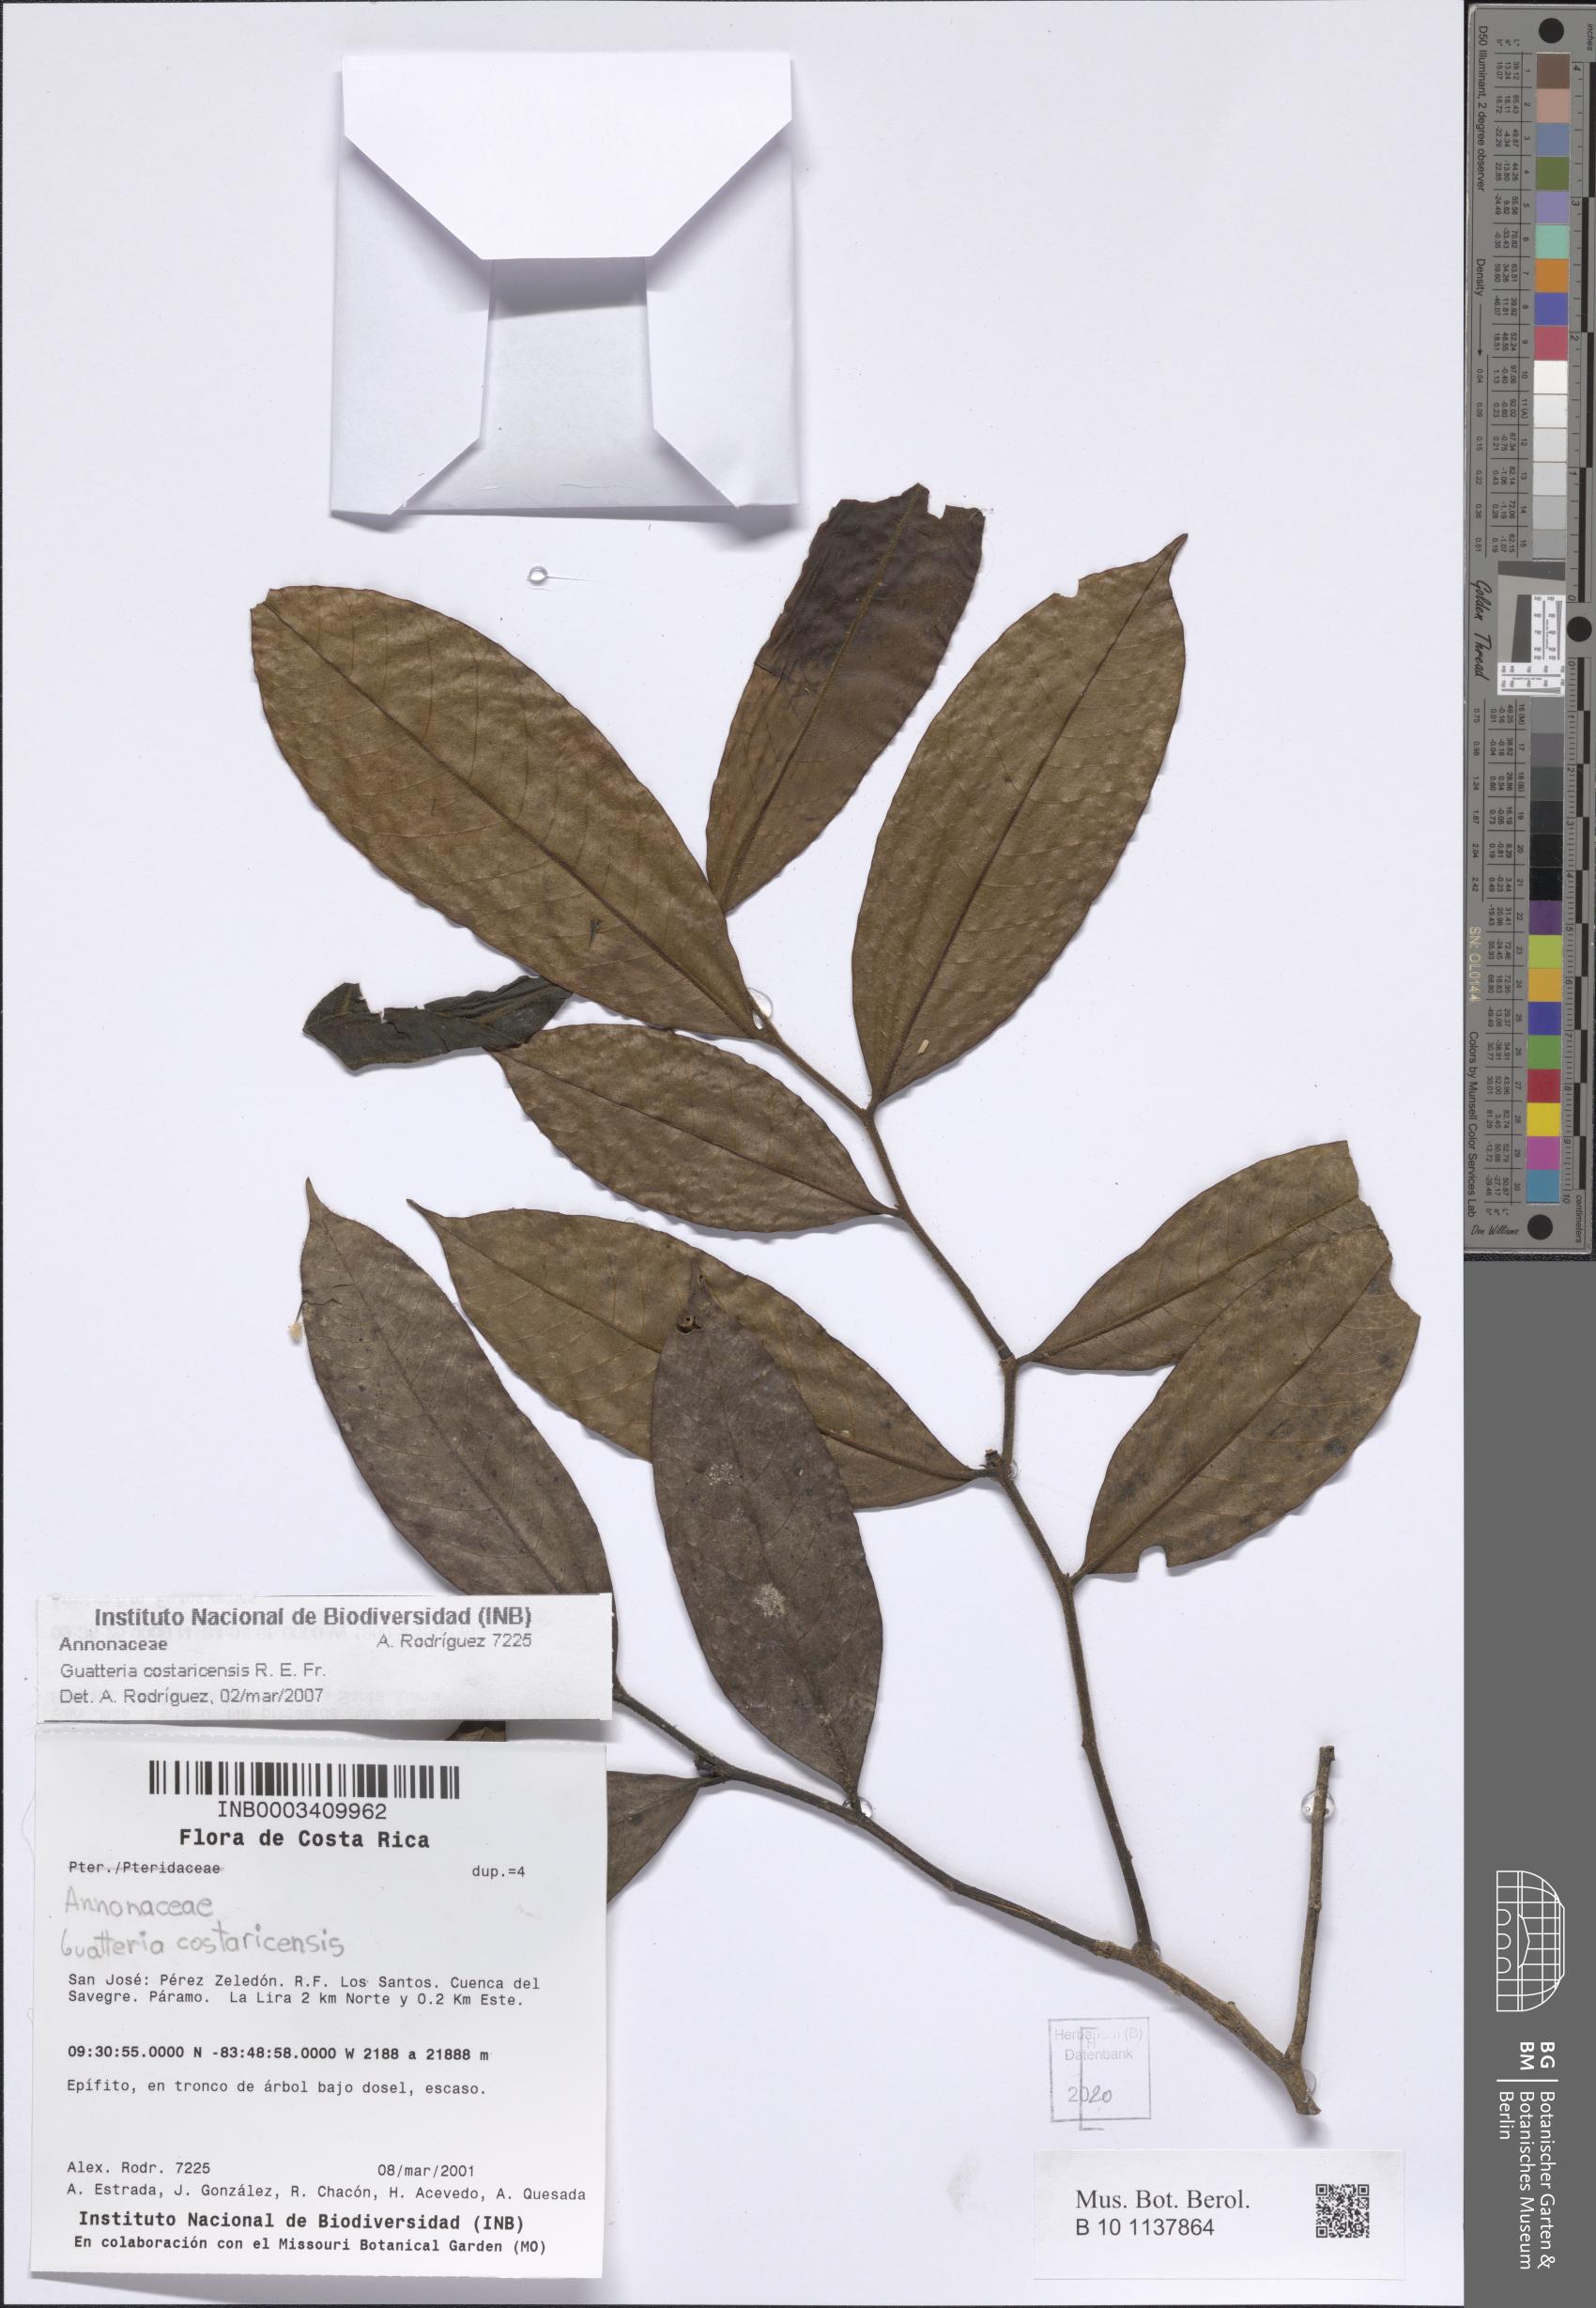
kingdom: Plantae
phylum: Tracheophyta
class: Magnoliopsida
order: Magnoliales
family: Annonaceae
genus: Guatteria
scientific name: Guatteria costaricensis
